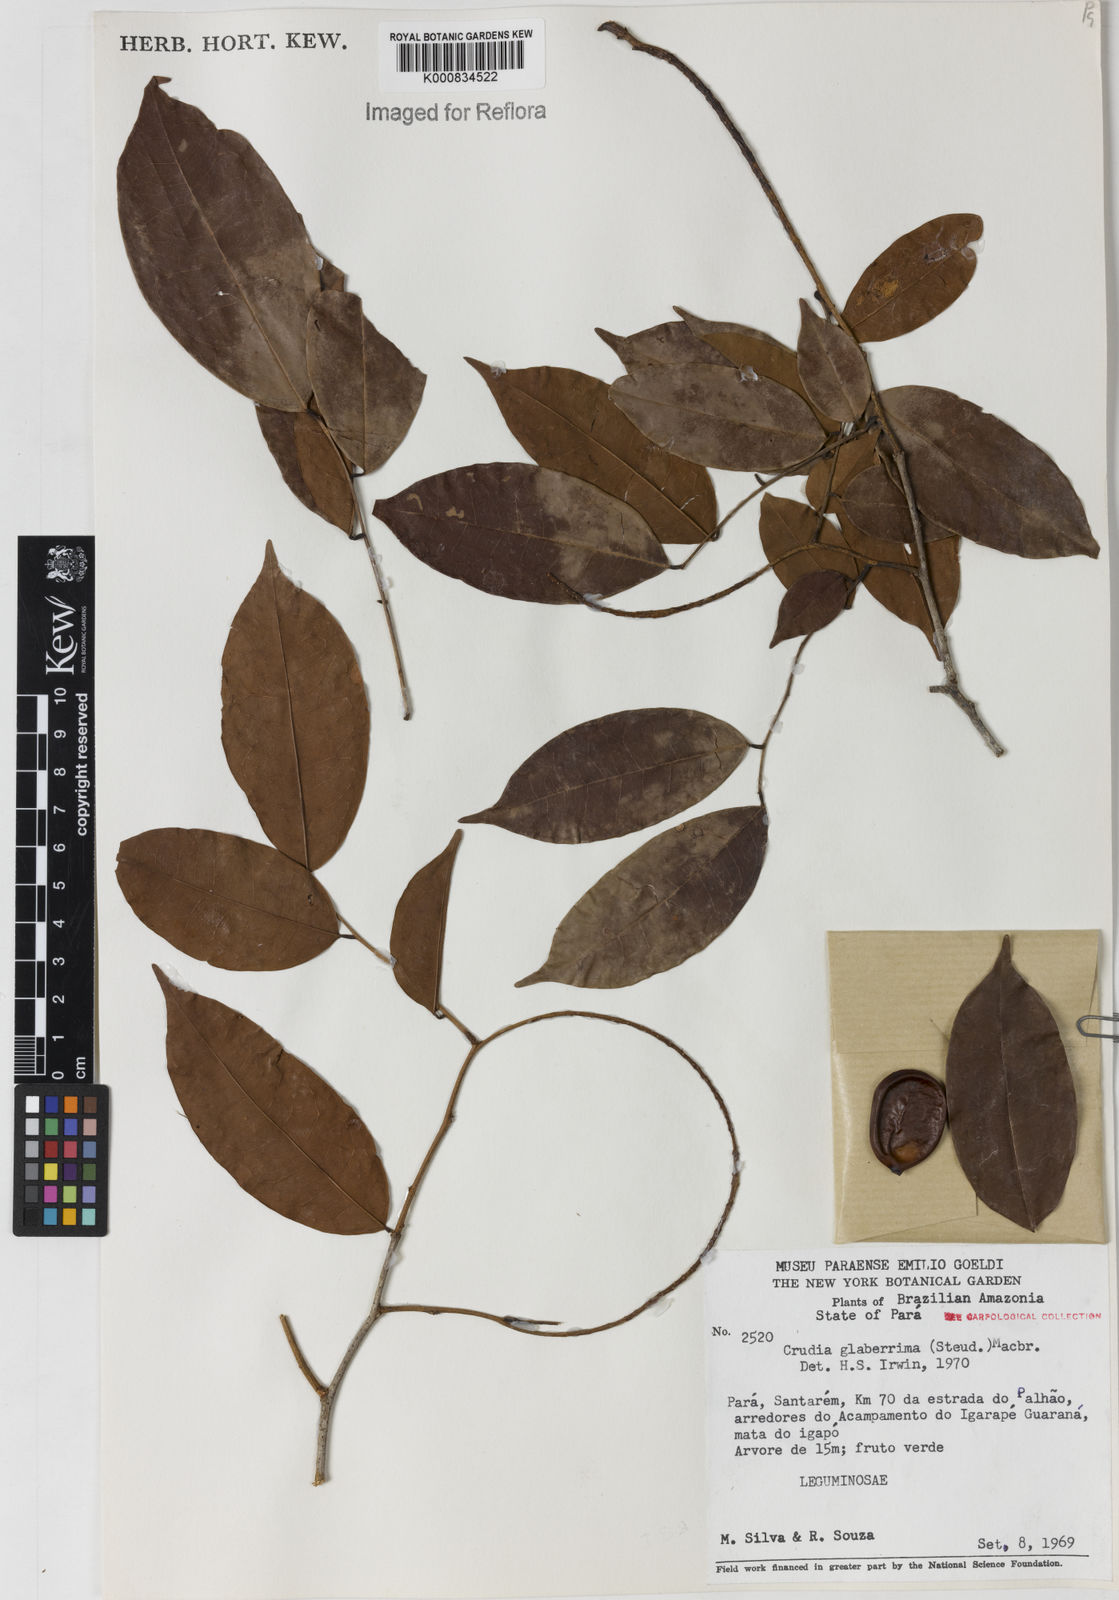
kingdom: Plantae
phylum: Tracheophyta
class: Magnoliopsida
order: Fabales
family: Fabaceae
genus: Crudia
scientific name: Crudia glaberrima
